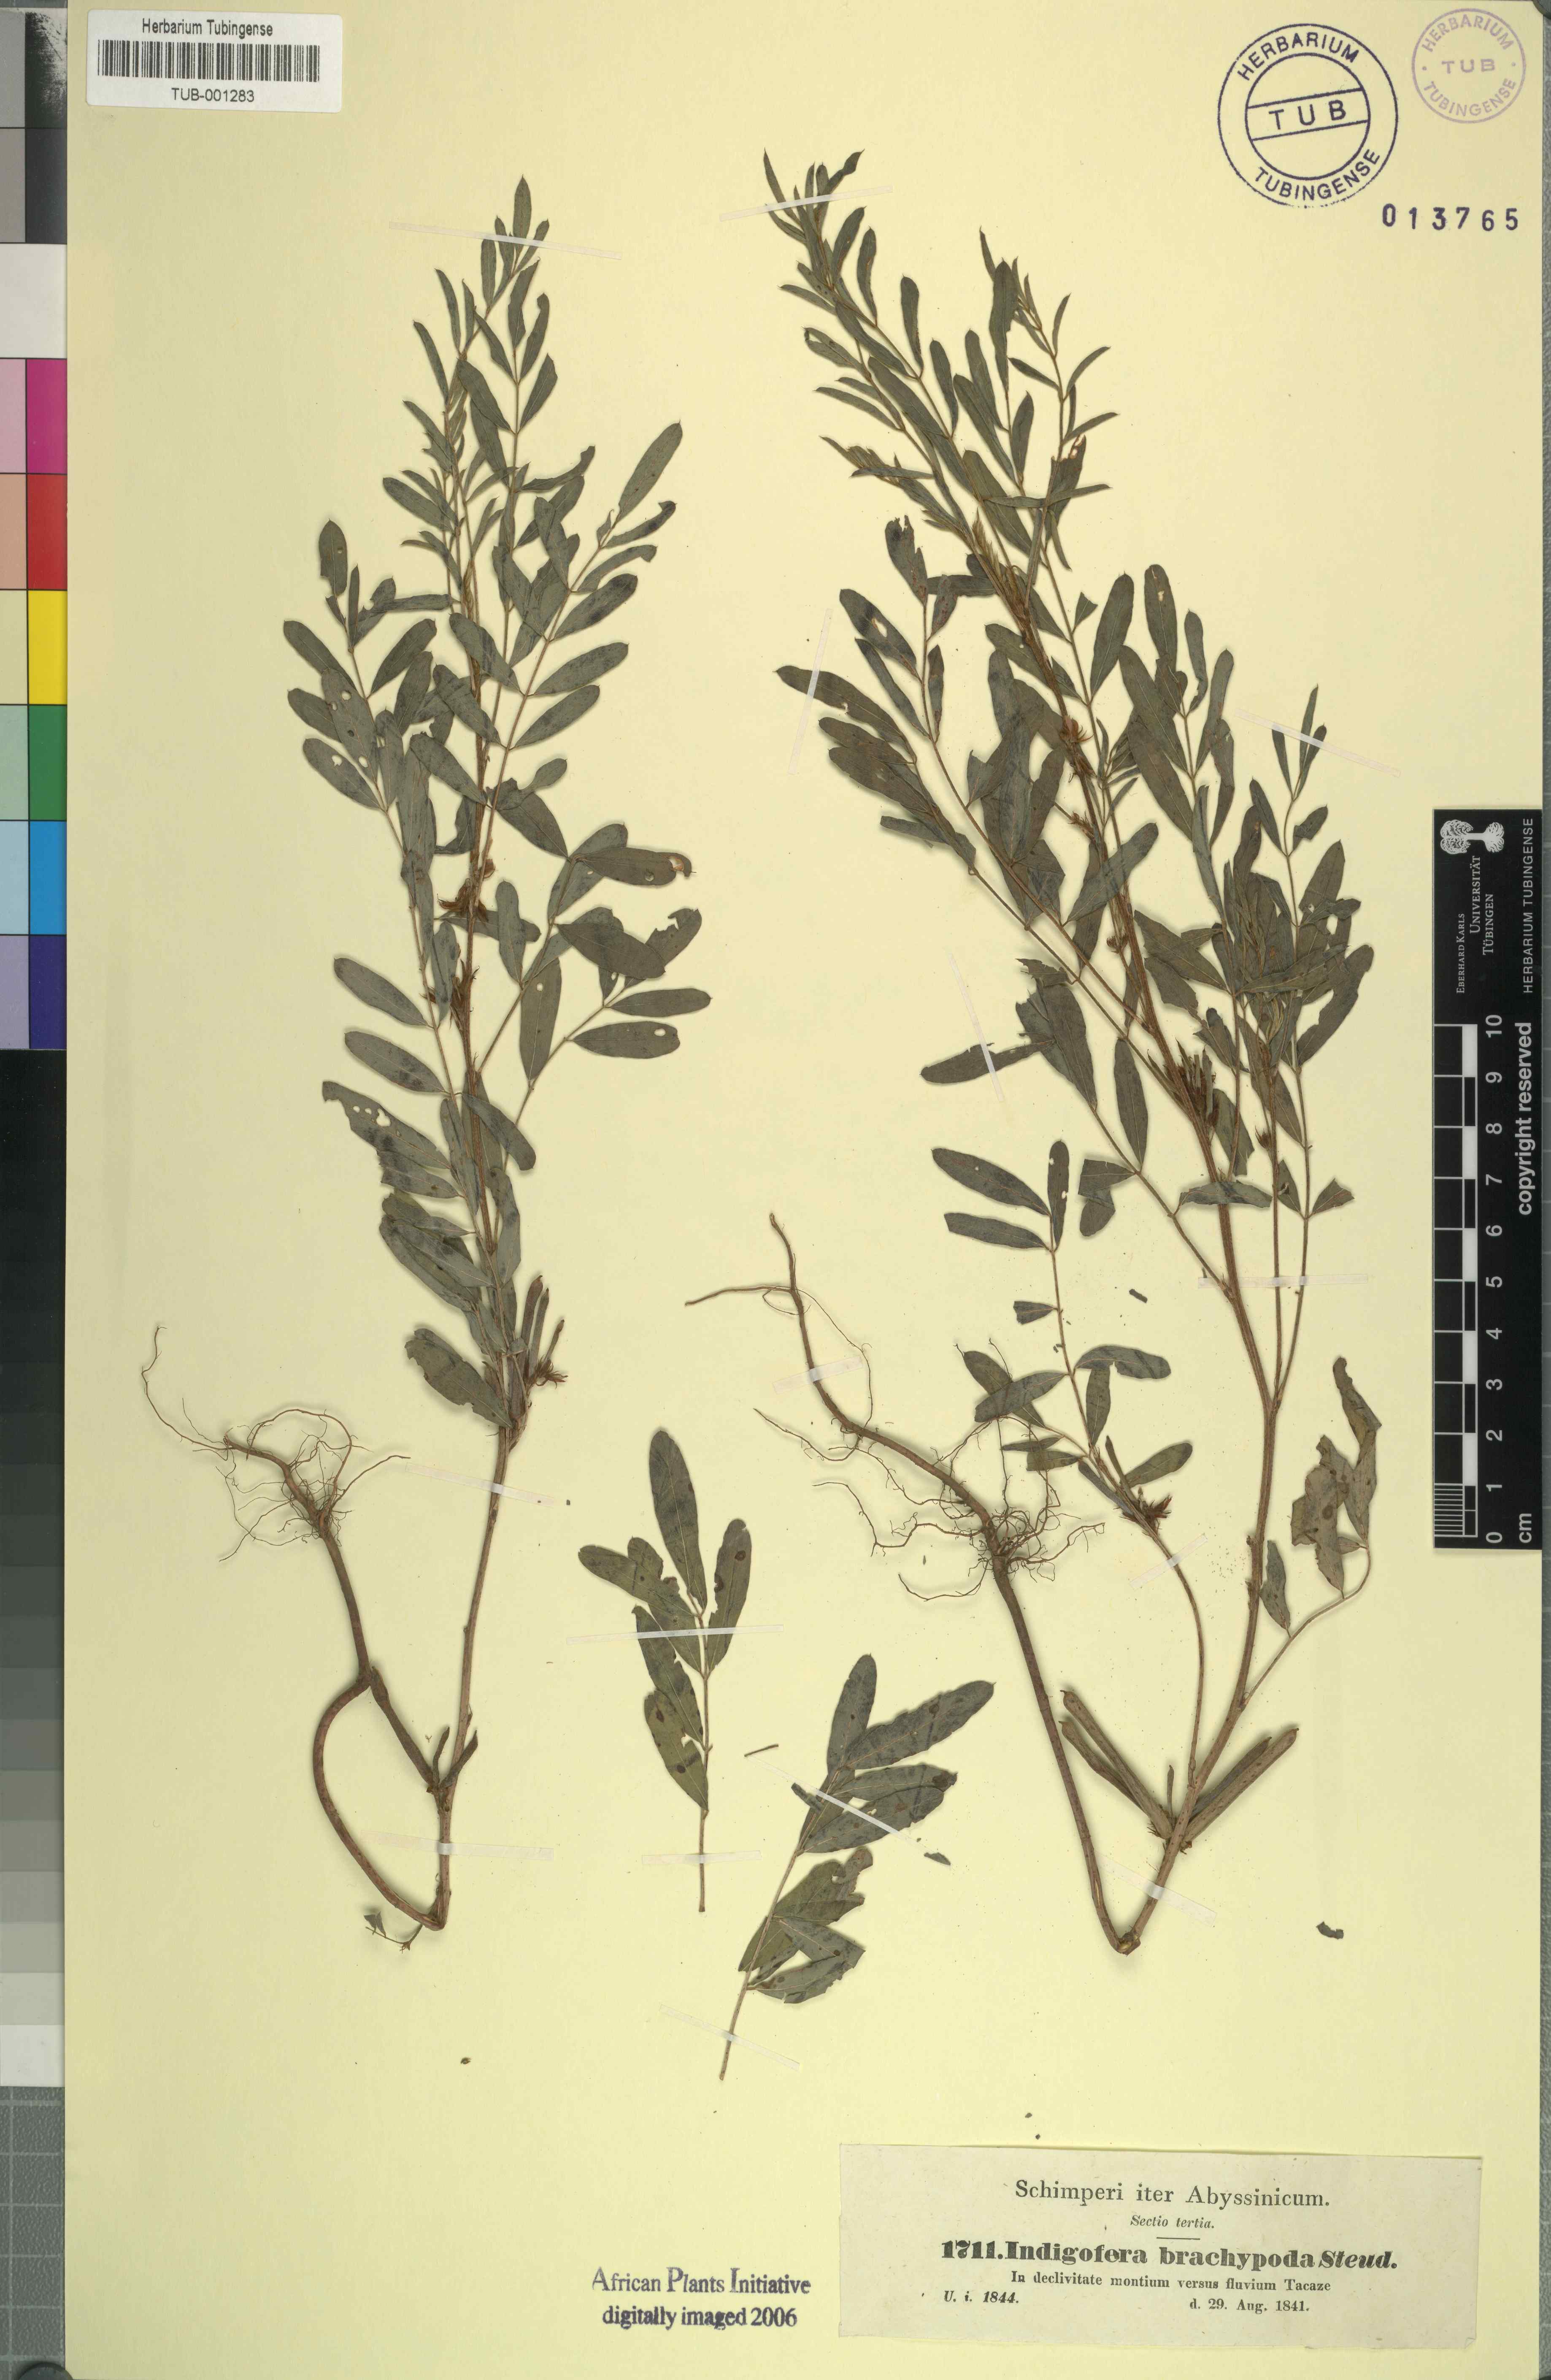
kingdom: Plantae
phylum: Tracheophyta
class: Magnoliopsida
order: Fabales
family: Fabaceae
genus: Indigofera
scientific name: Indigofera stenophylla
